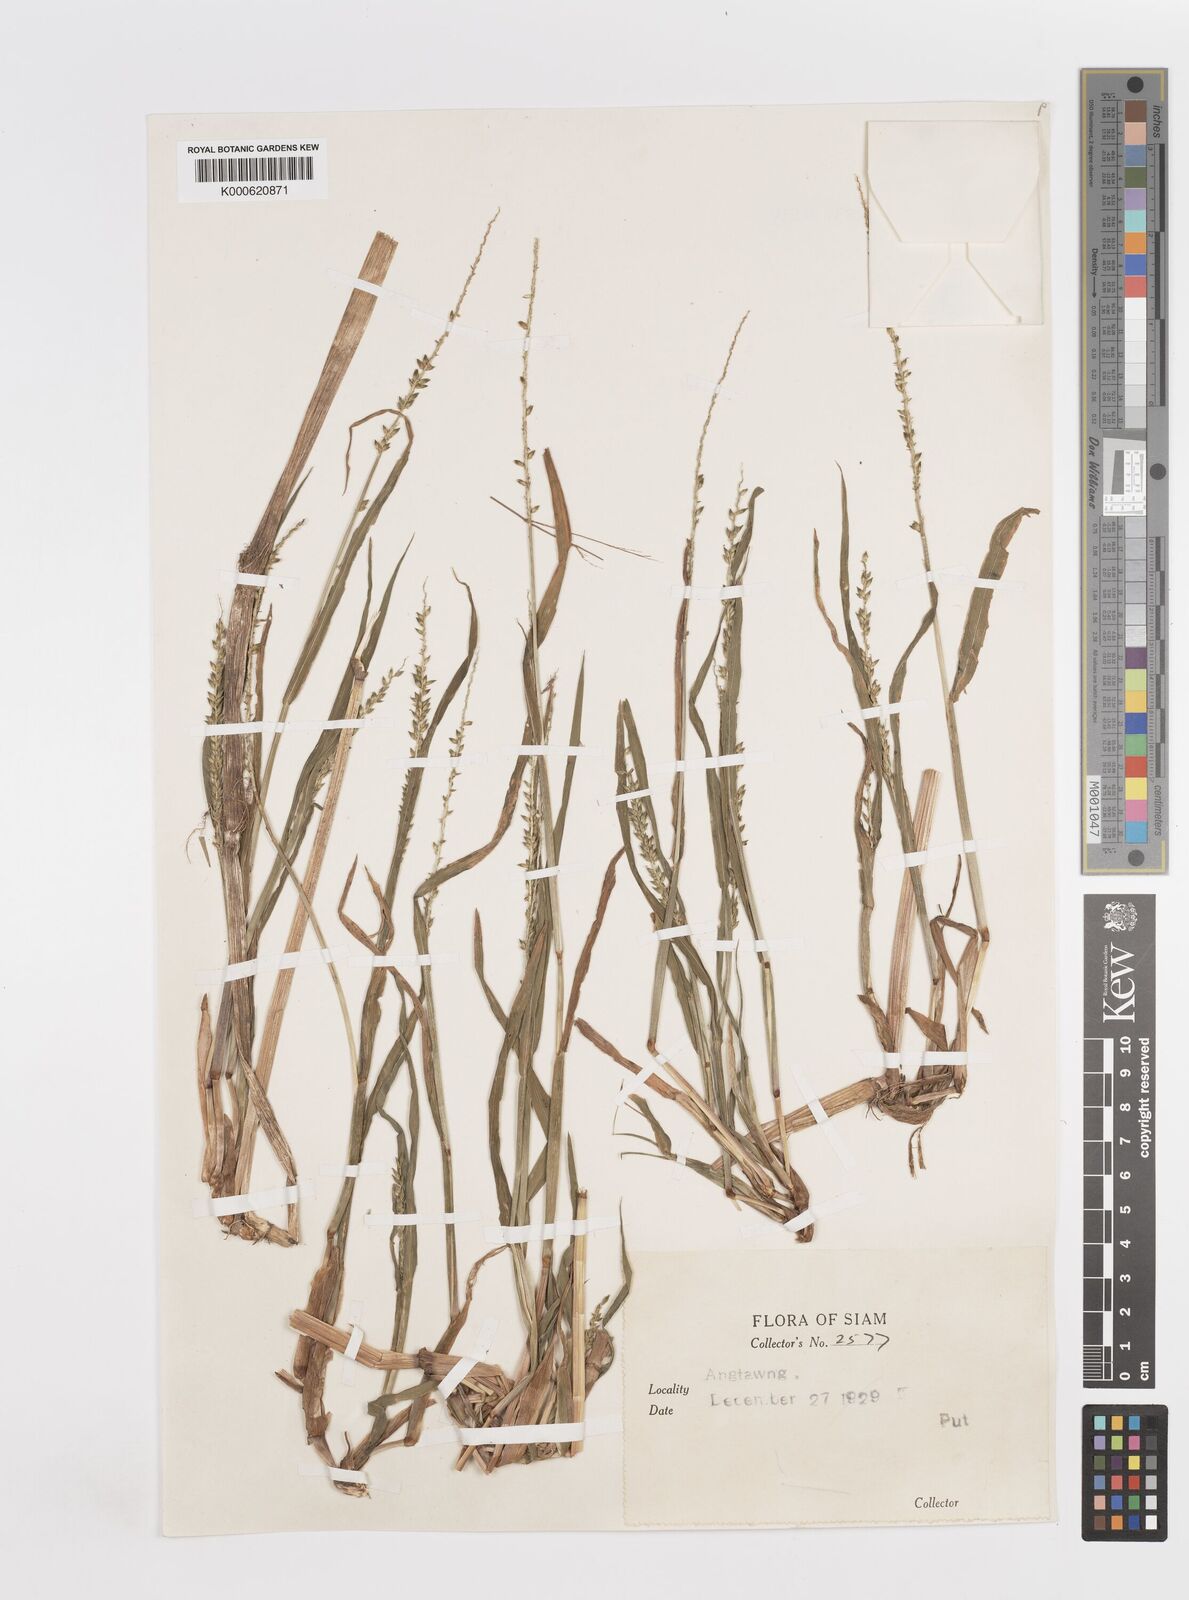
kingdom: Plantae
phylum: Tracheophyta
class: Liliopsida
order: Poales
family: Poaceae
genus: Sacciolepis
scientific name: Sacciolepis interrupta
